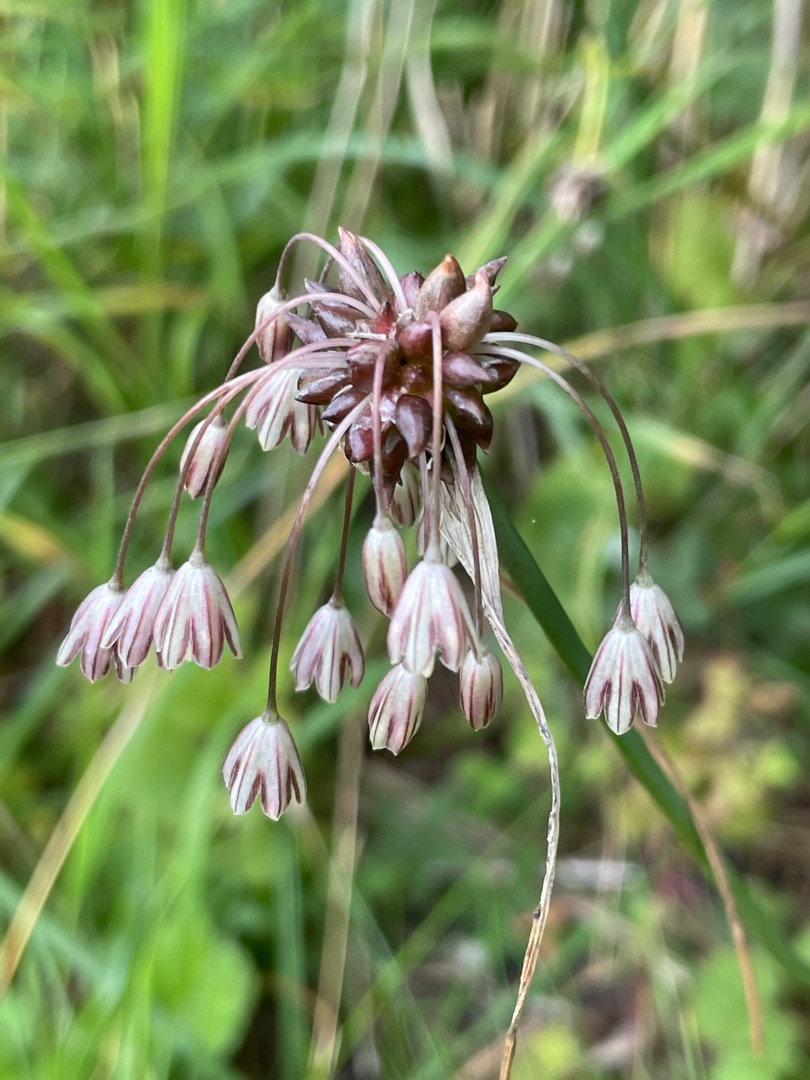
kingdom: Plantae
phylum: Tracheophyta
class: Liliopsida
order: Asparagales
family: Amaryllidaceae
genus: Allium
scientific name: Allium oleraceum
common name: Vild løg
